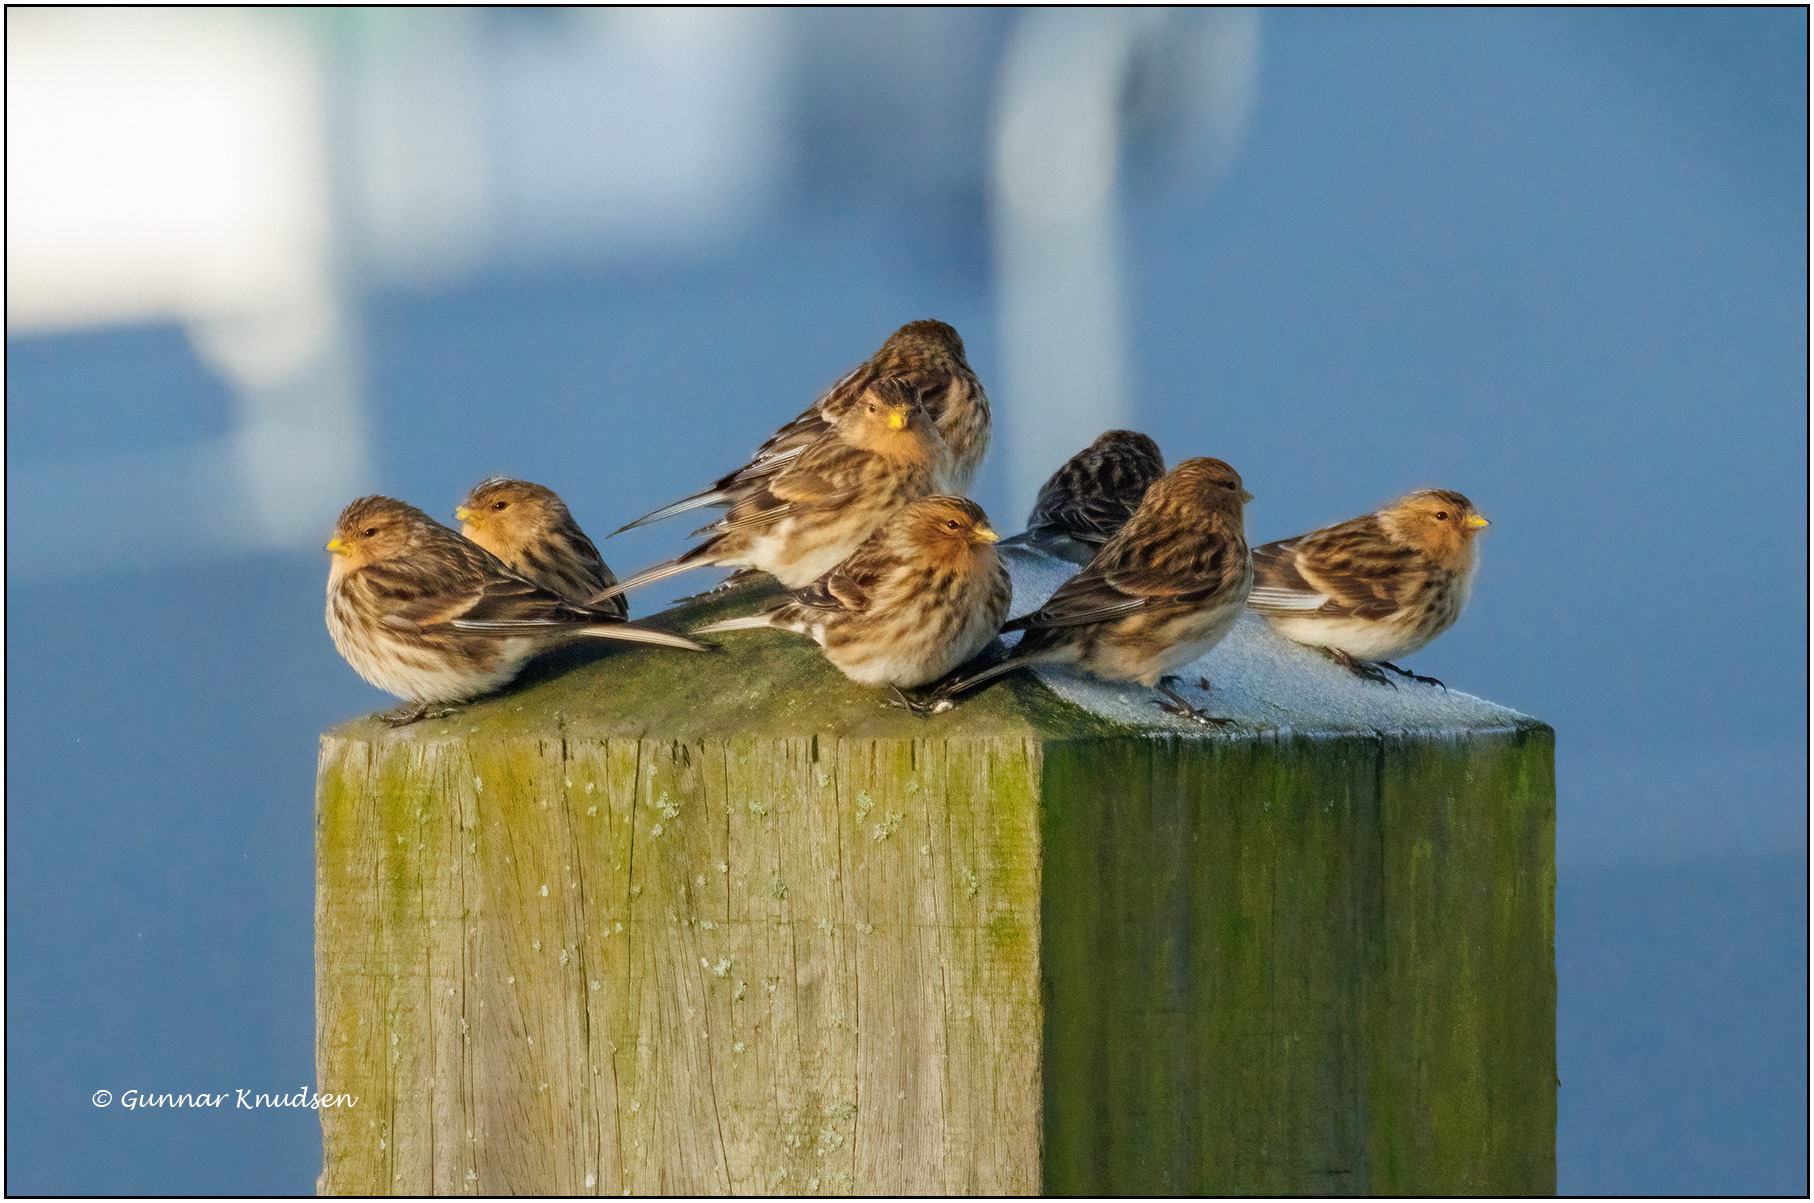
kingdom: Animalia
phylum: Chordata
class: Aves
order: Passeriformes
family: Fringillidae
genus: Linaria
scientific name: Linaria flavirostris
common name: Bjergirisk
